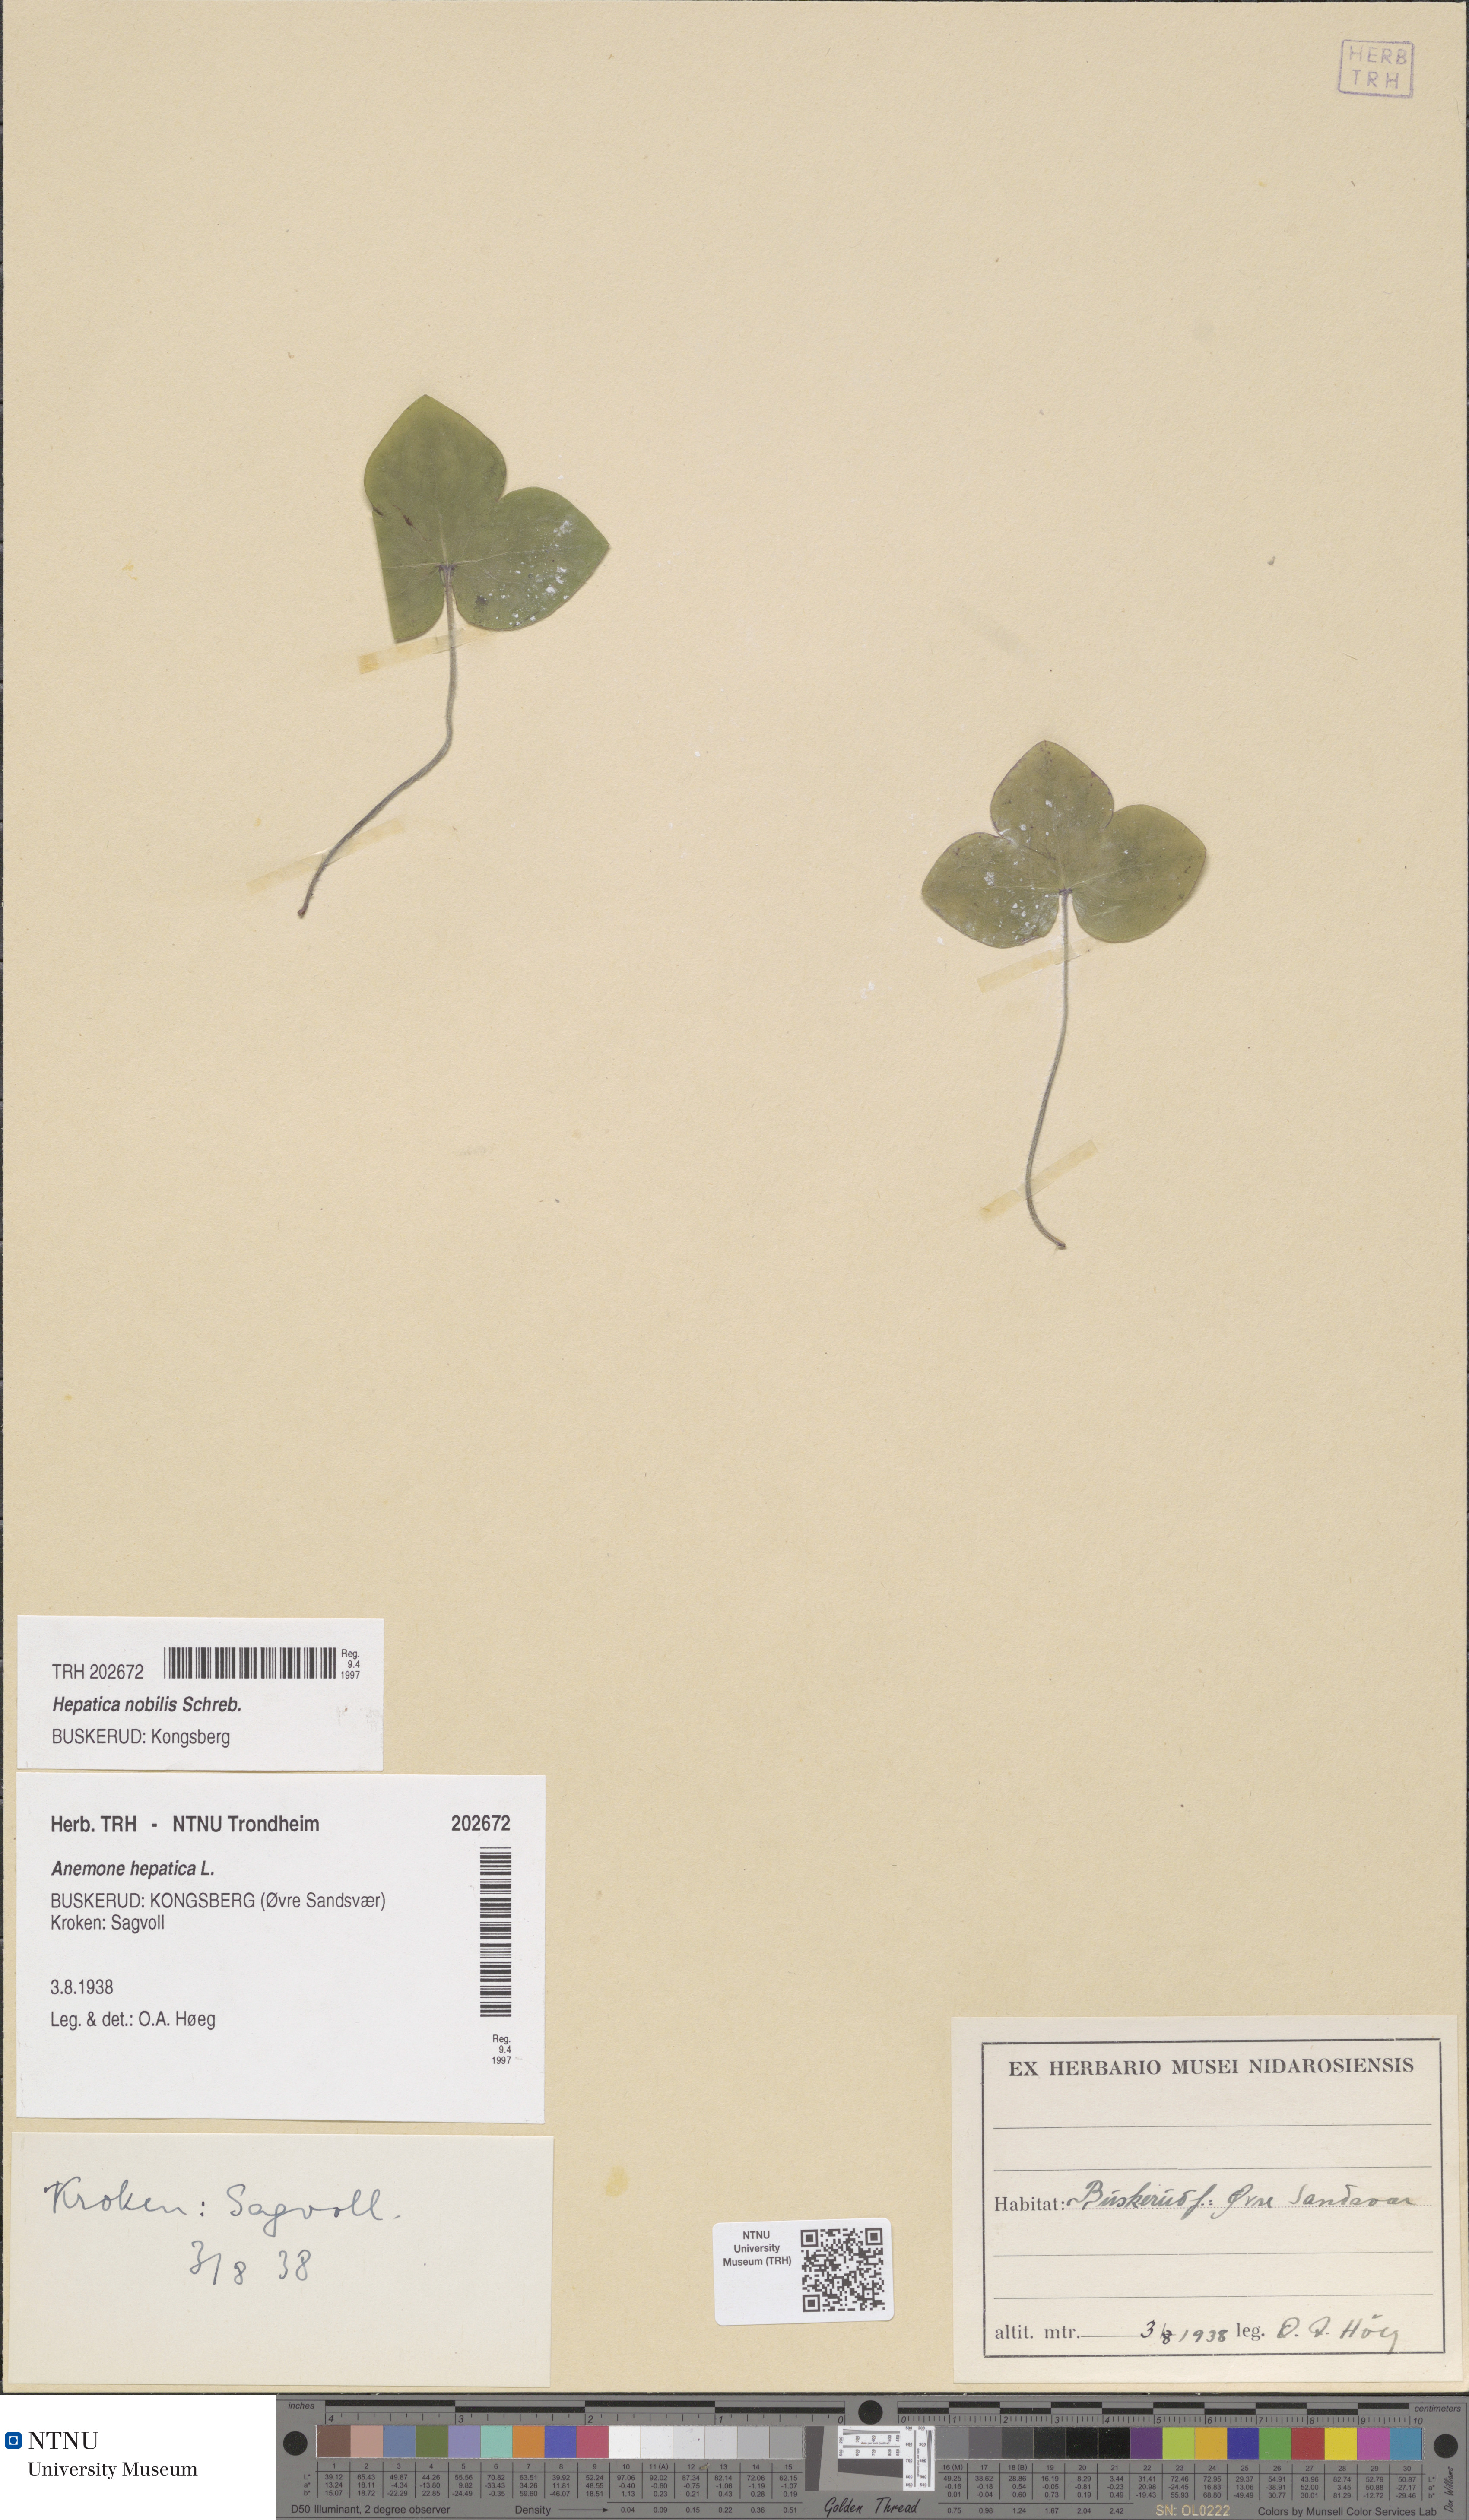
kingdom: Plantae
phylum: Tracheophyta
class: Magnoliopsida
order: Ranunculales
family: Ranunculaceae
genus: Hepatica
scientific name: Hepatica nobilis
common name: Liverleaf
